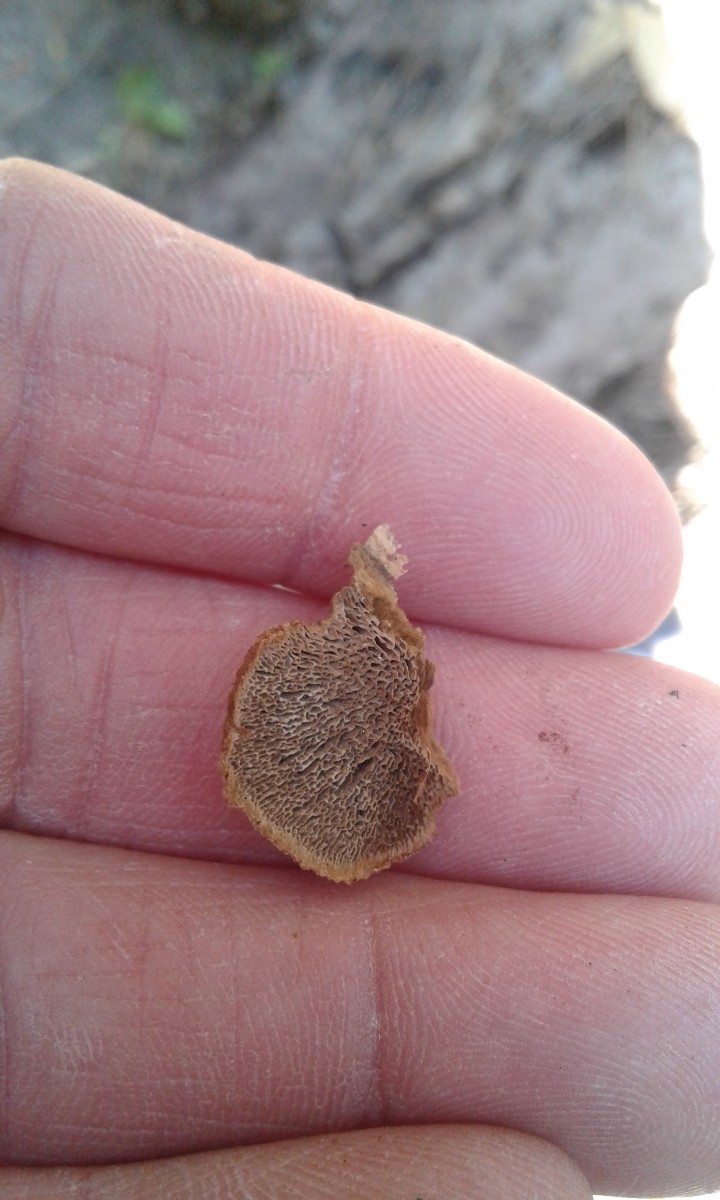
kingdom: Fungi
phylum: Basidiomycota
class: Agaricomycetes
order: Gloeophyllales
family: Gloeophyllaceae
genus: Gloeophyllum
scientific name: Gloeophyllum
